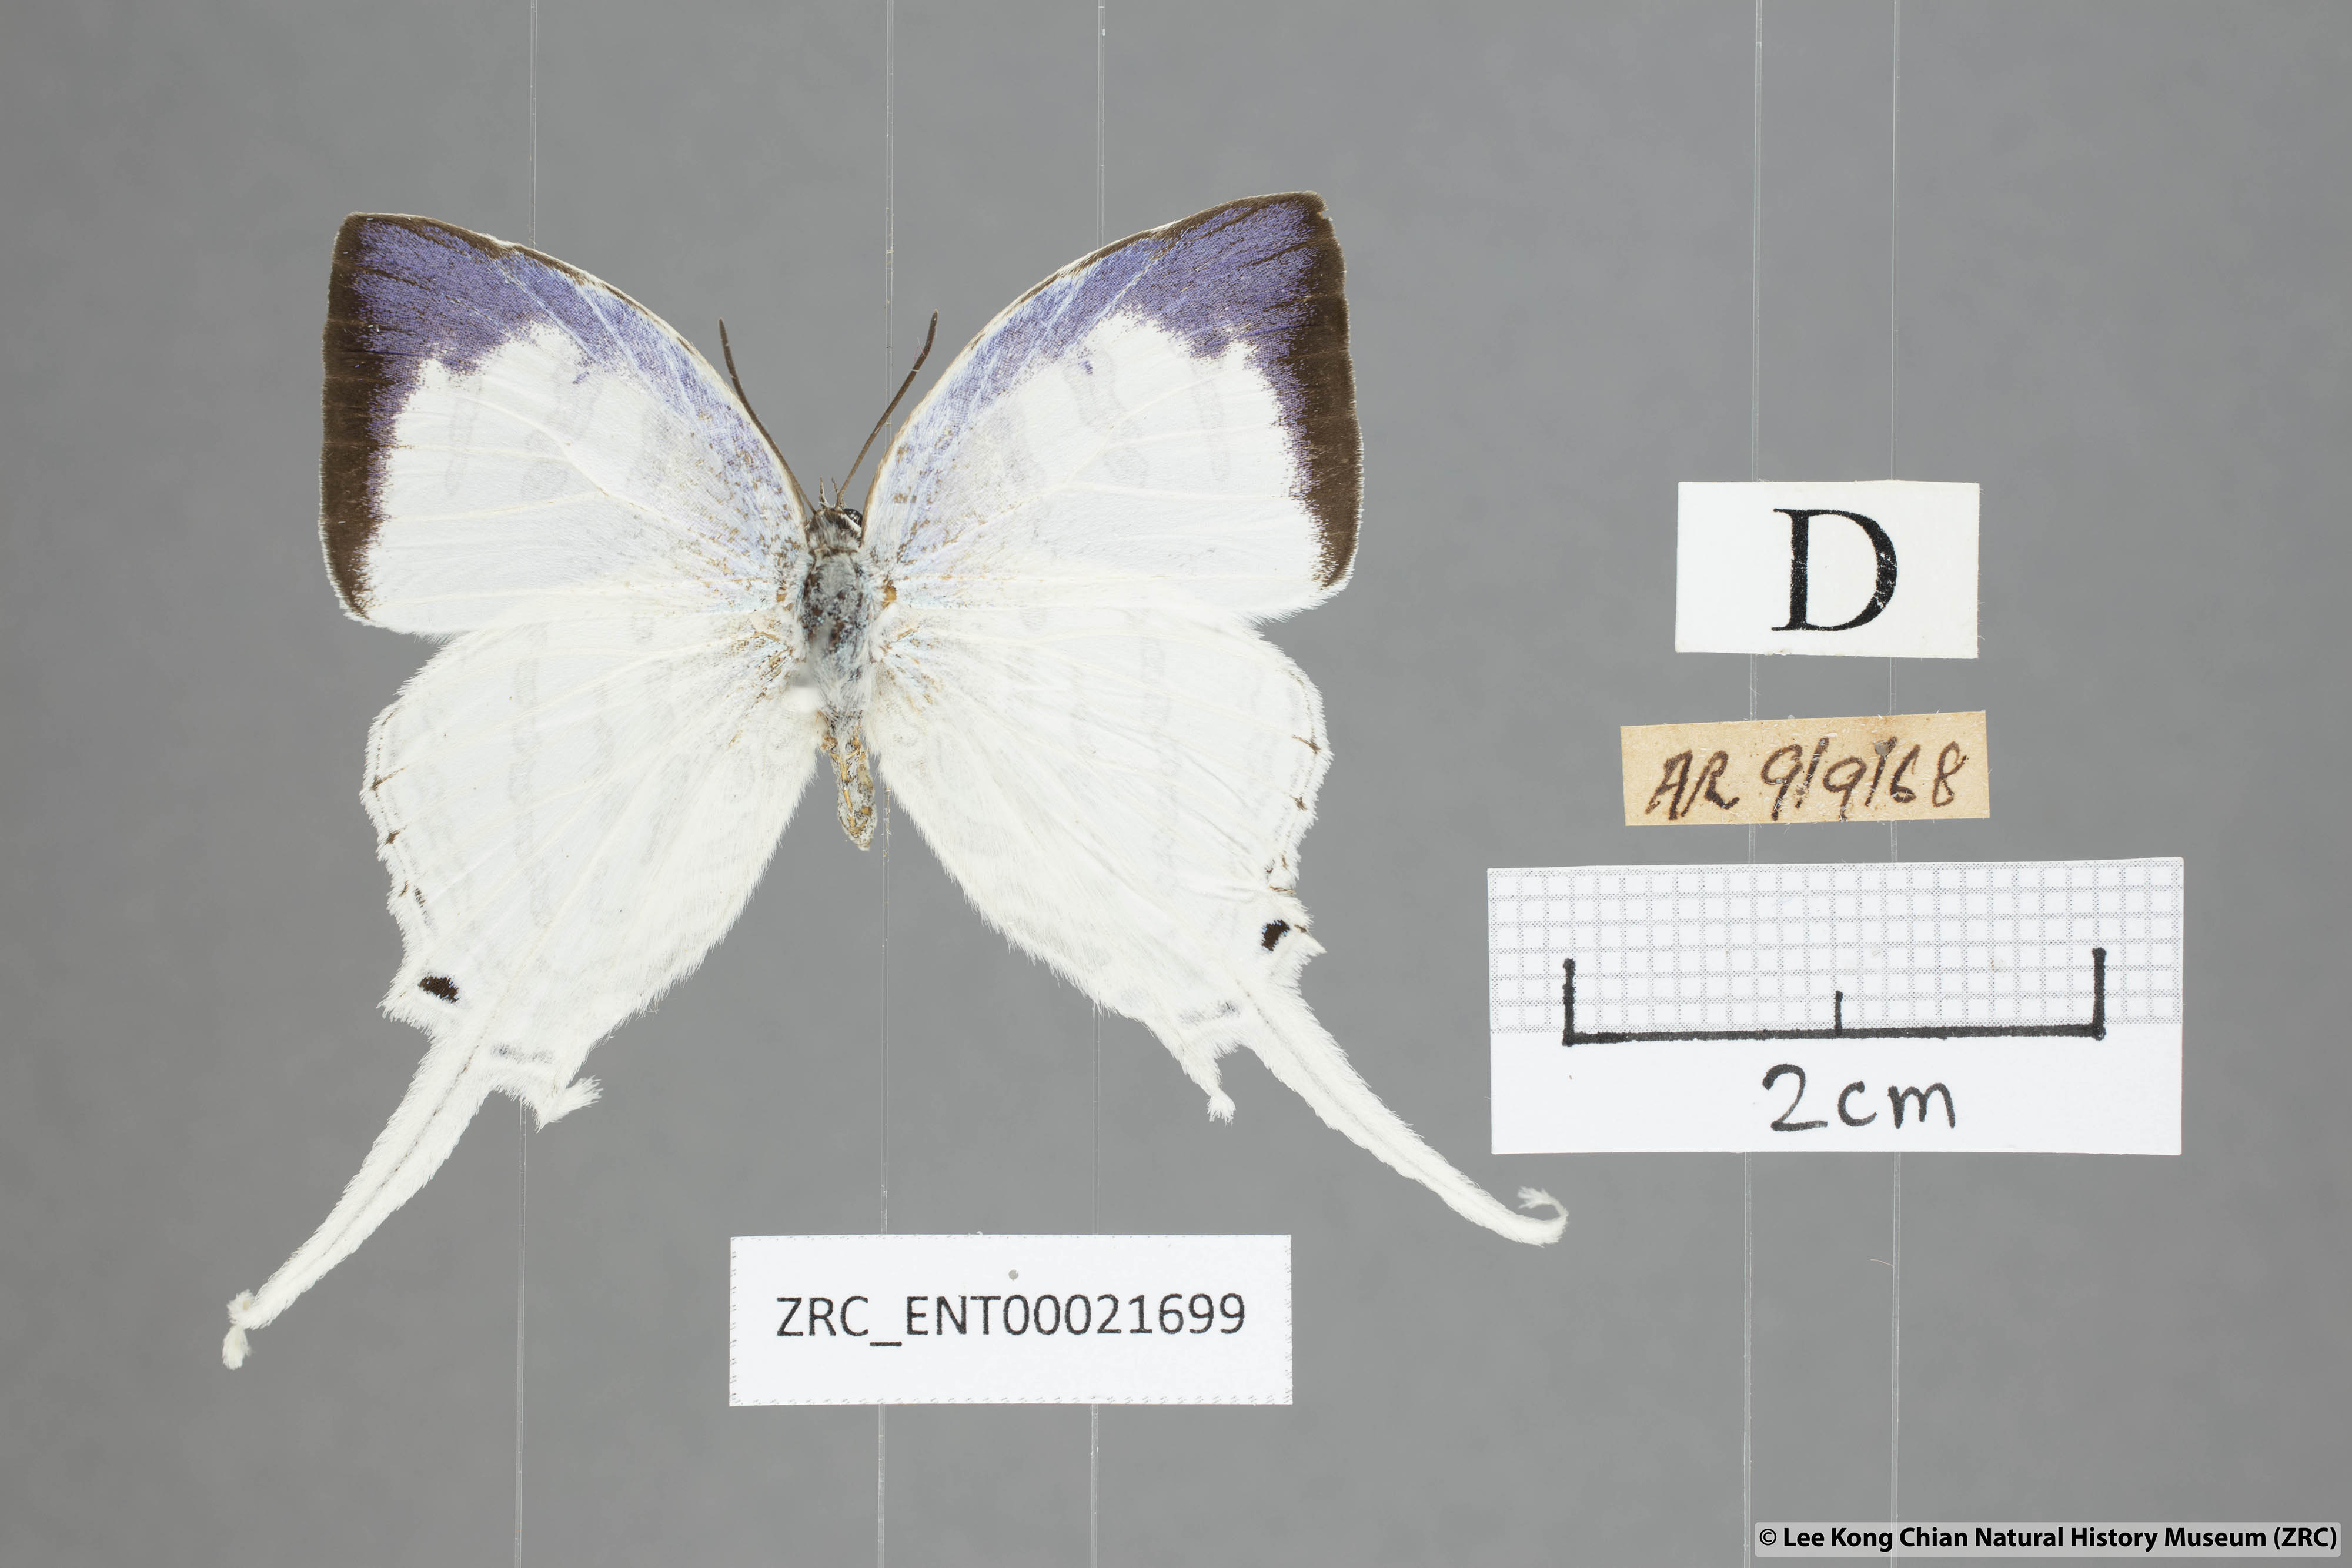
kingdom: Animalia
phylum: Arthropoda
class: Insecta
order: Lepidoptera
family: Lycaenidae
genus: Neomyrina
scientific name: Neomyrina nivea
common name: White imperial butterfly
